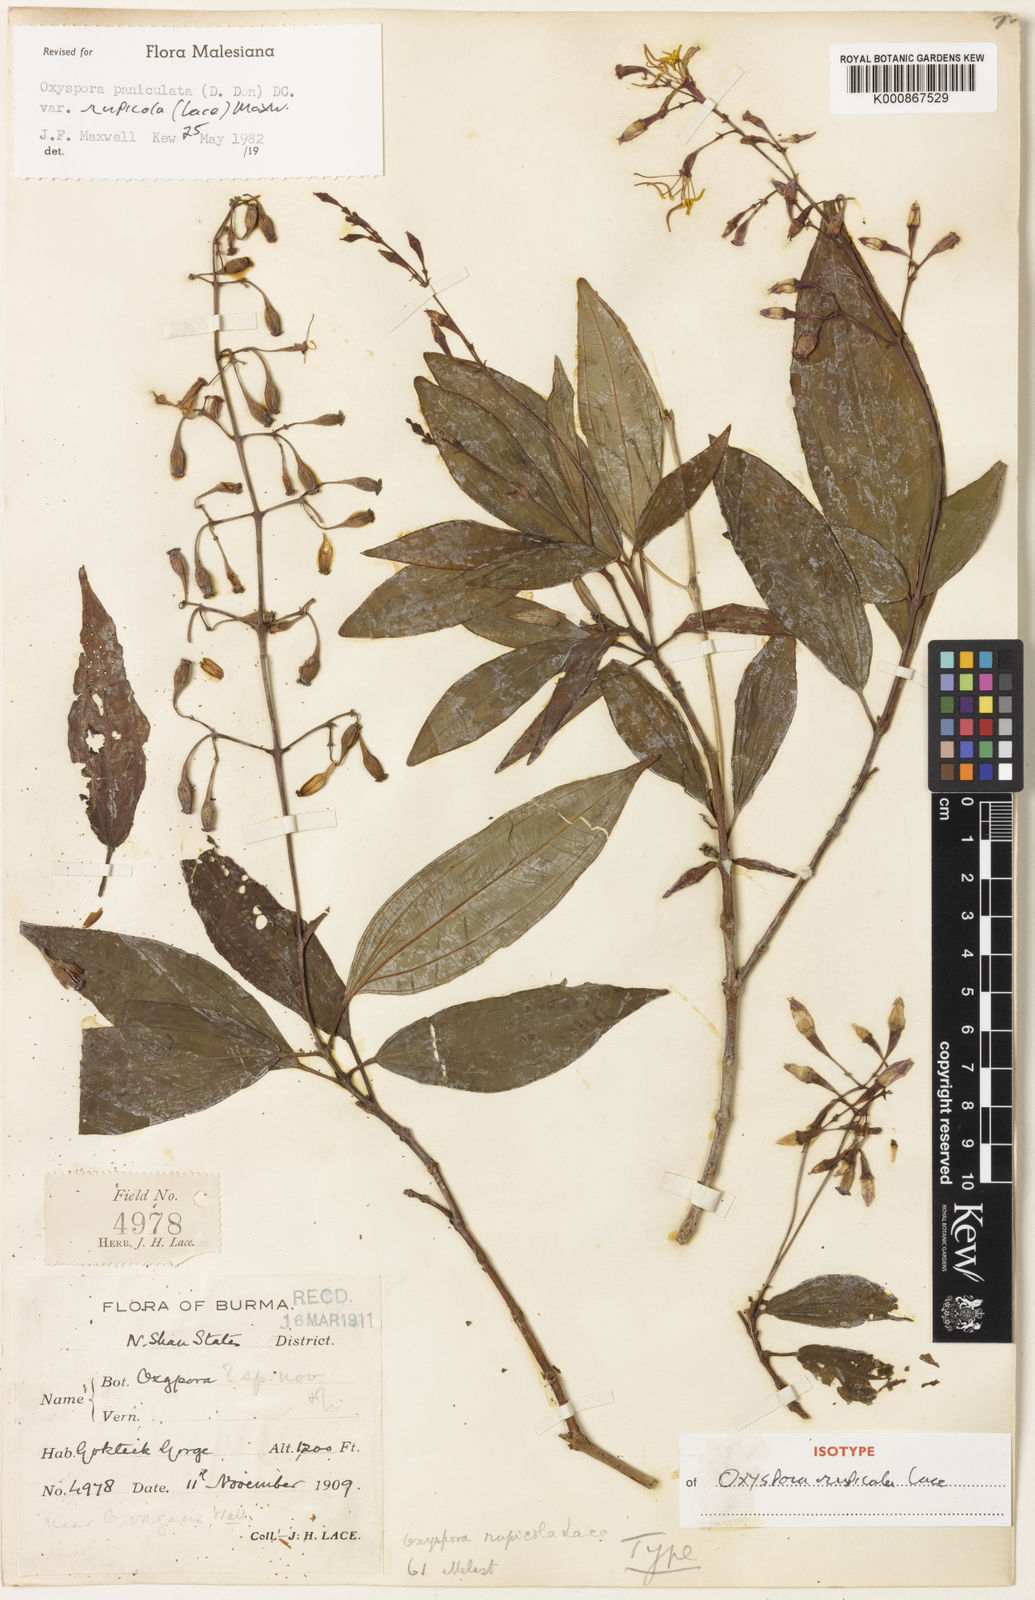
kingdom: Plantae
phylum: Tracheophyta
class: Magnoliopsida
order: Myrtales
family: Melastomataceae
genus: Oxyspora
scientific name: Oxyspora paniculata
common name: Bristletips
